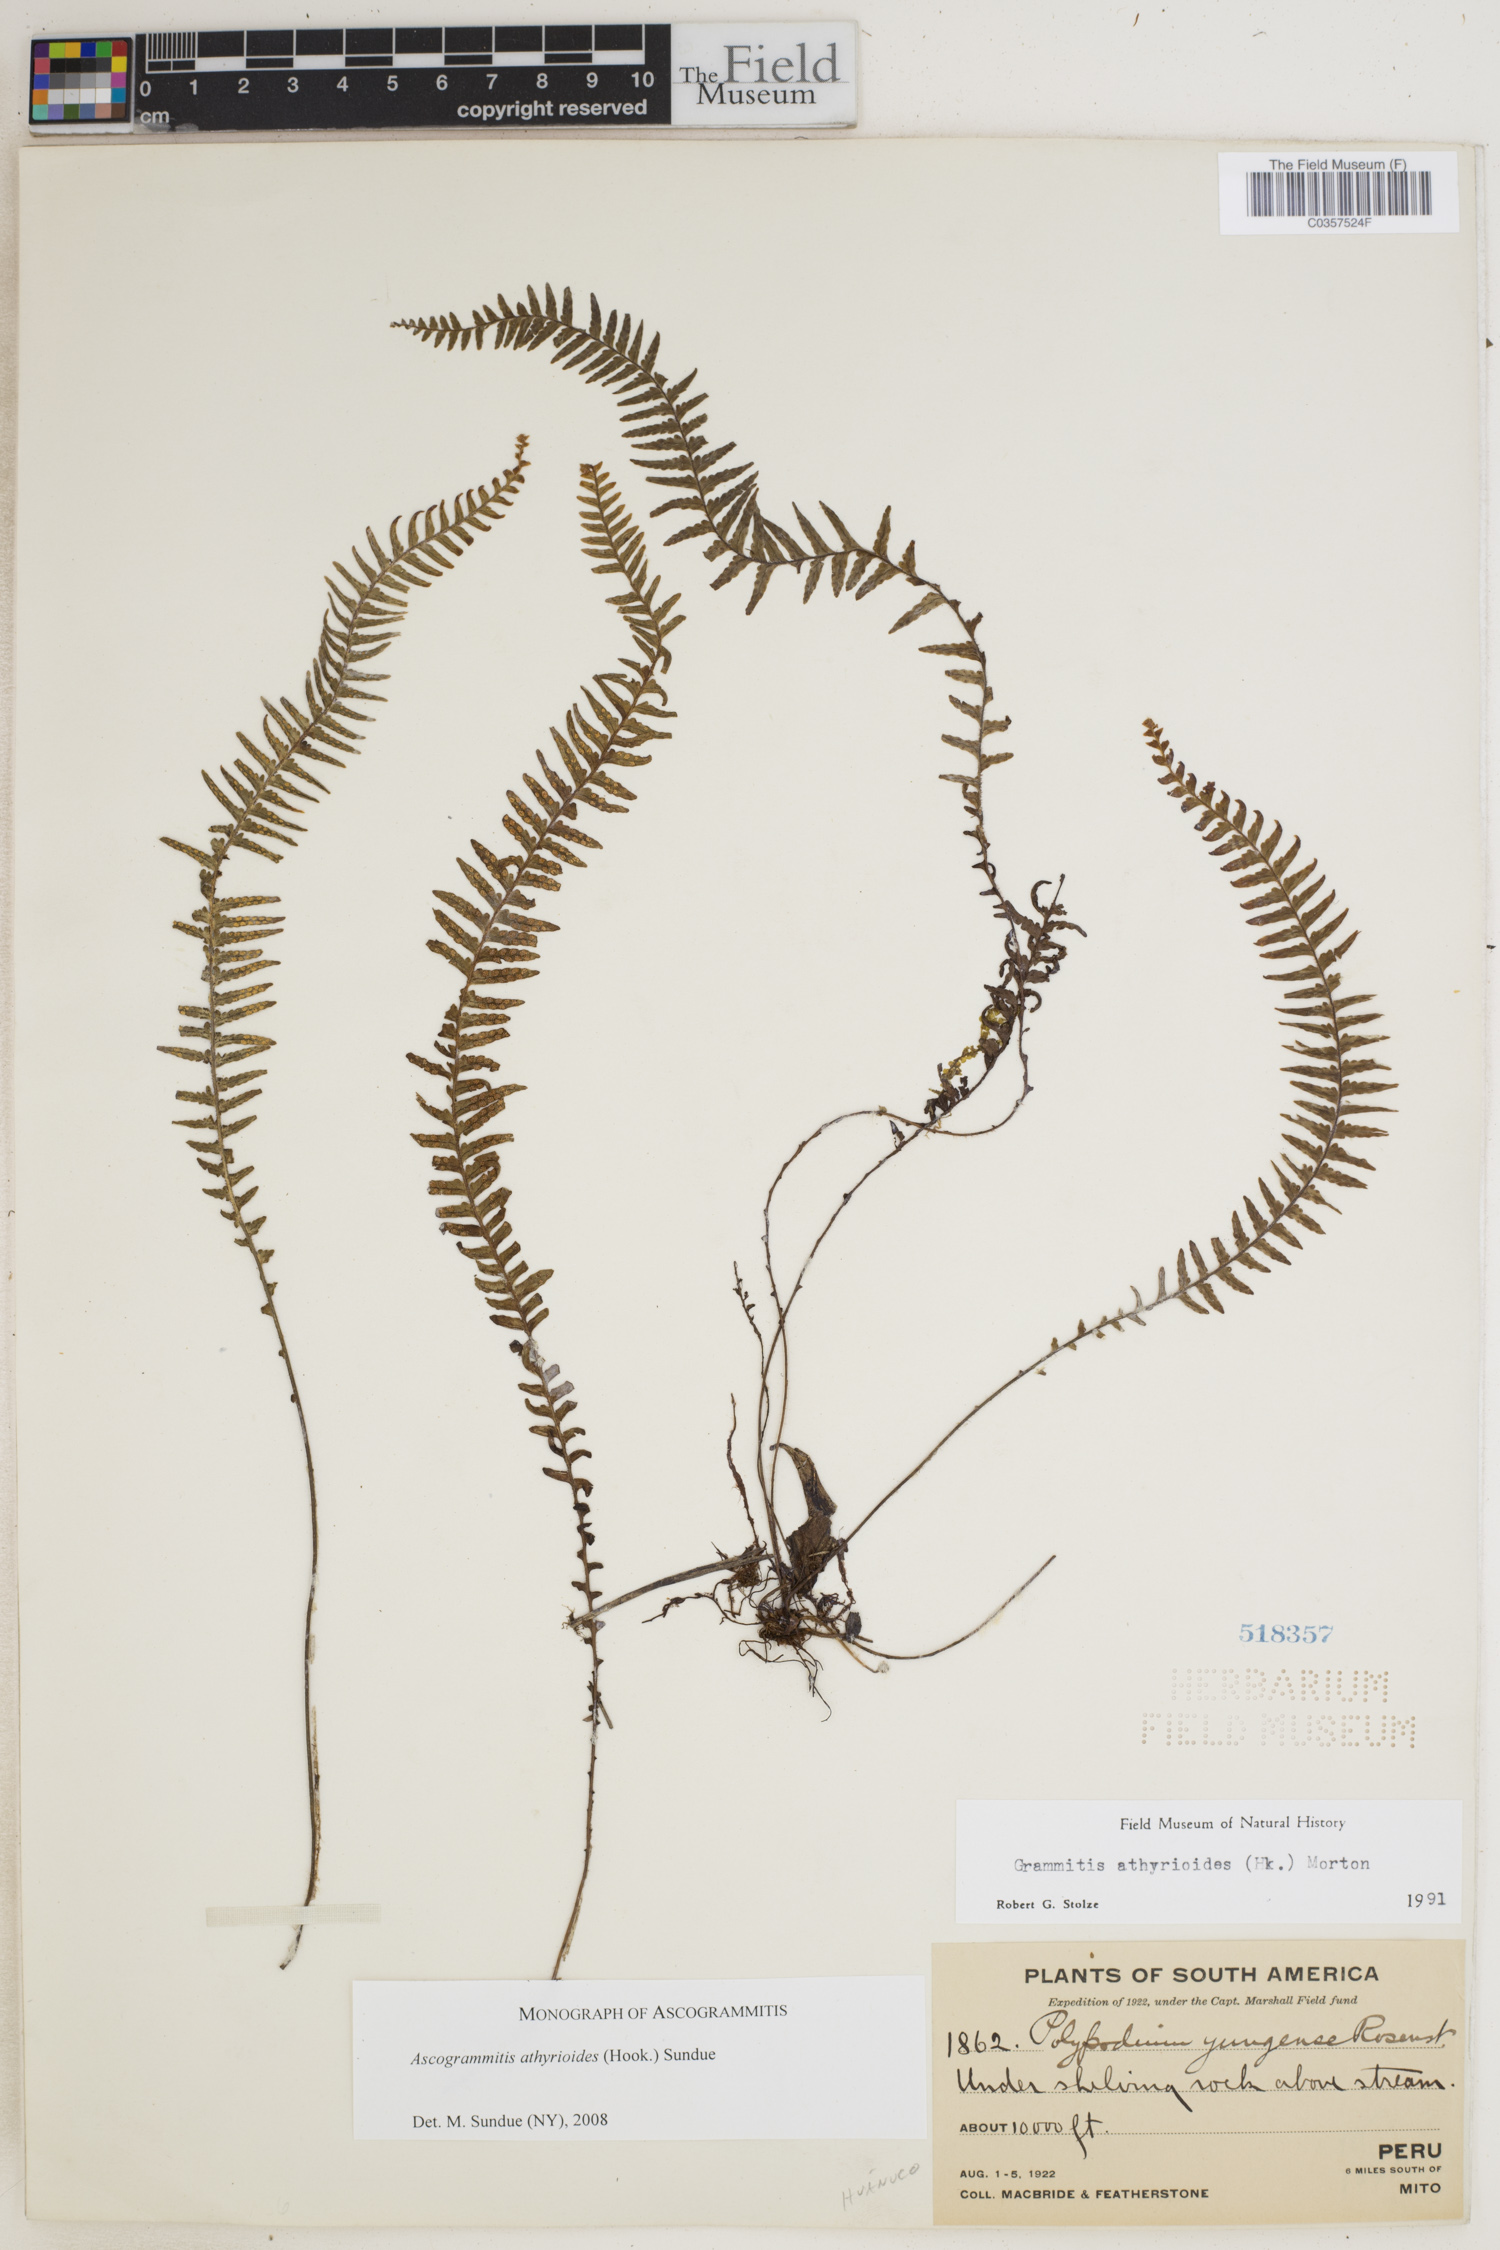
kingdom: Plantae
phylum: Tracheophyta
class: Polypodiopsida
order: Polypodiales
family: Polypodiaceae
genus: Ascogrammitis
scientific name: Ascogrammitis athyrioides
